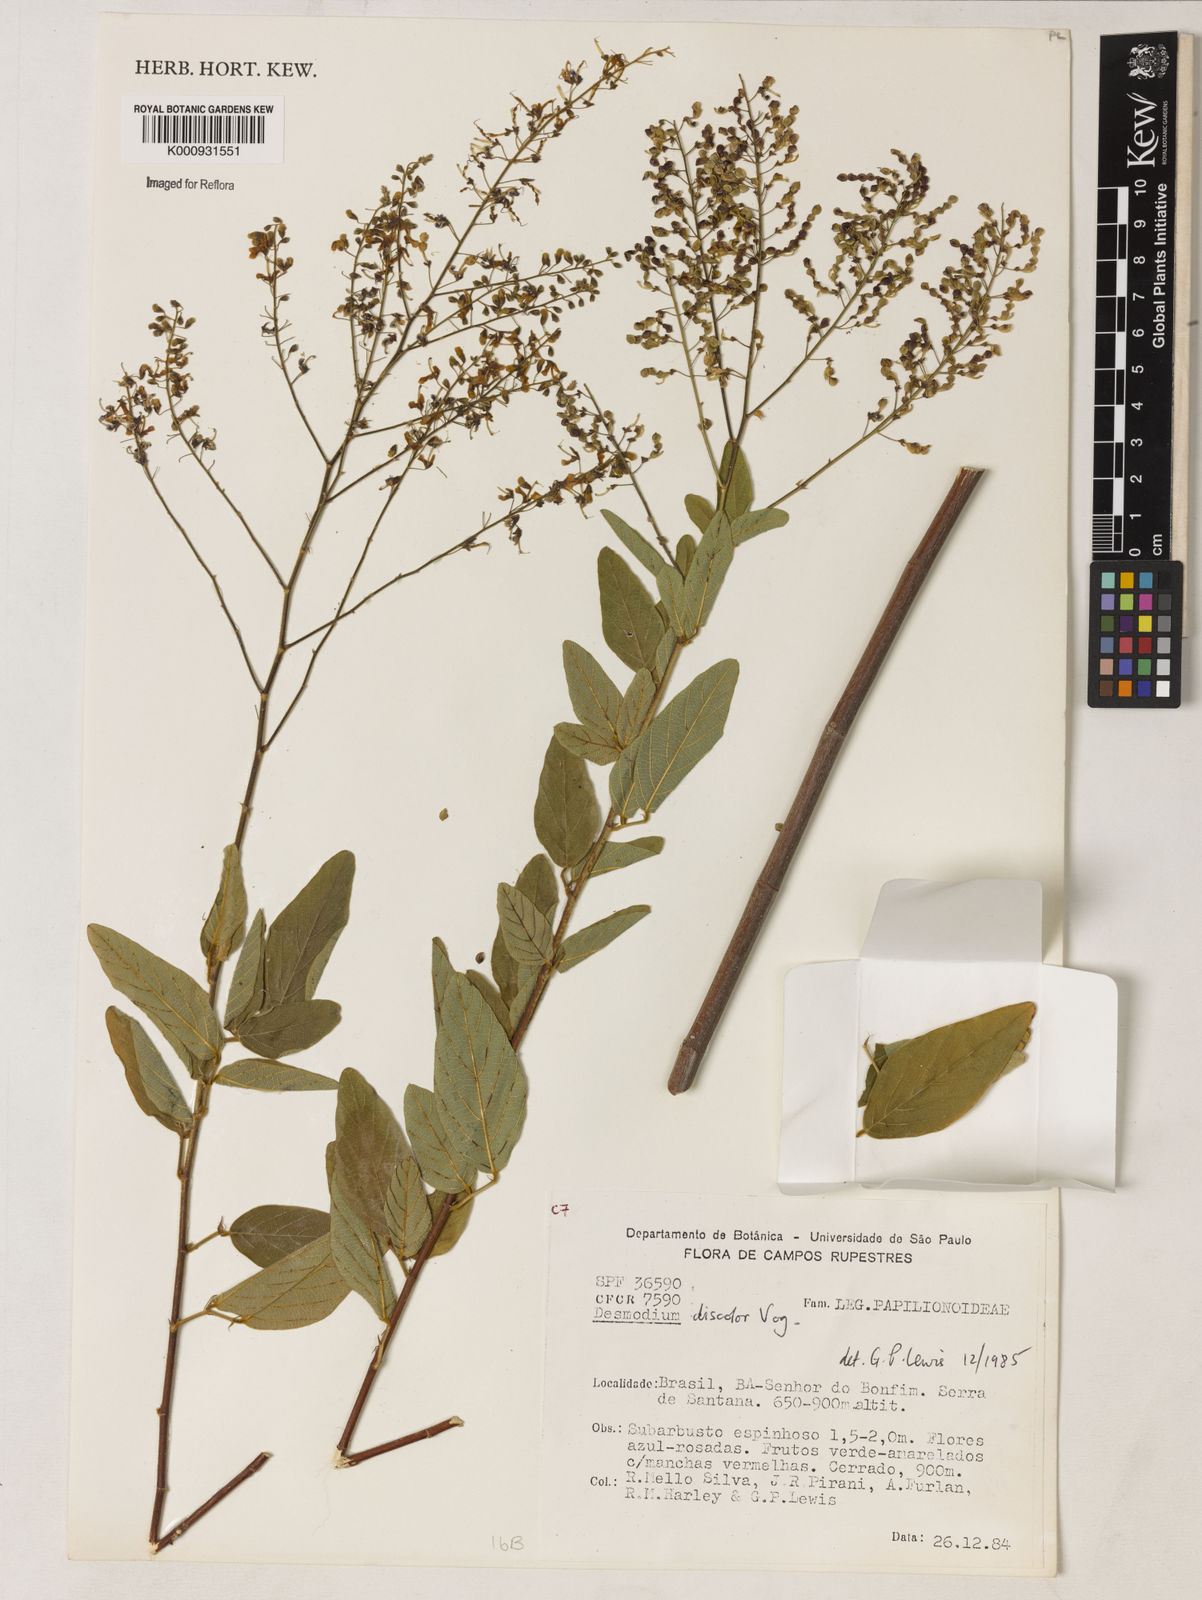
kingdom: Plantae
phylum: Tracheophyta
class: Magnoliopsida
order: Fabales
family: Fabaceae
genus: Desmodium
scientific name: Desmodium subsecundum
